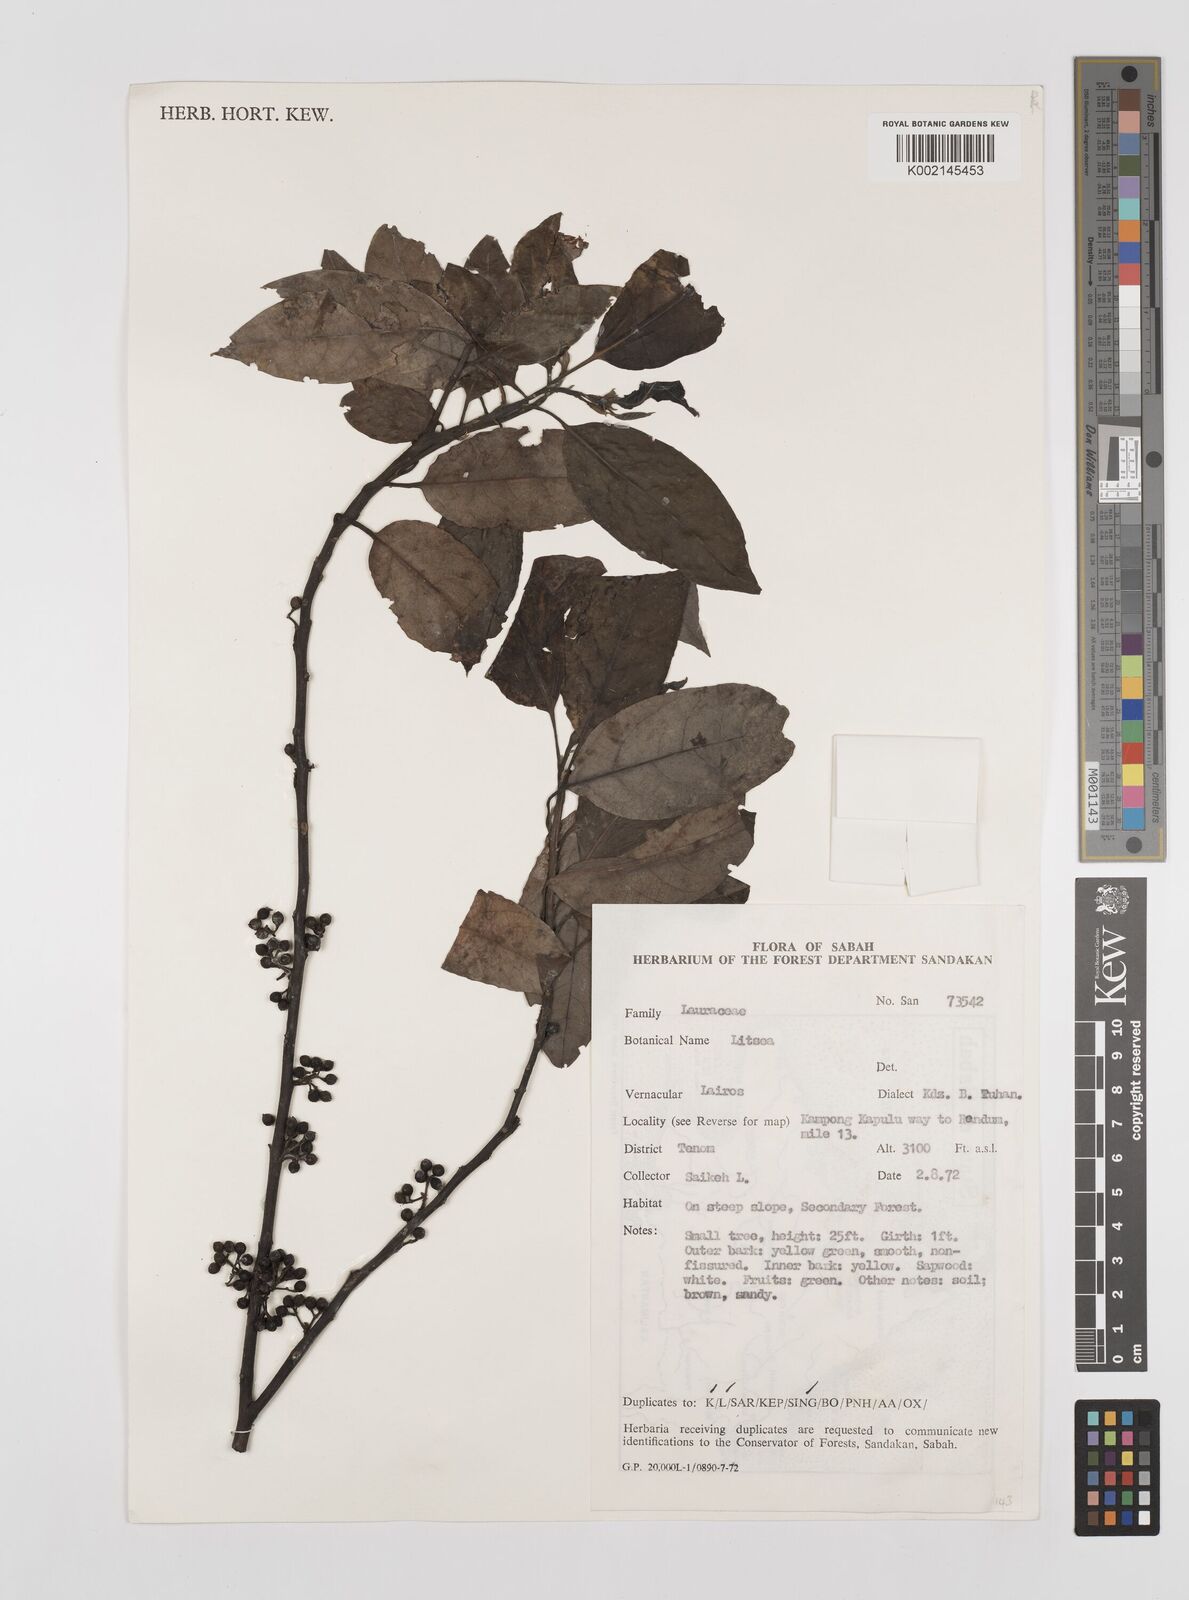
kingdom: Plantae
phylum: Tracheophyta
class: Magnoliopsida
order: Laurales
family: Lauraceae
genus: Litsea
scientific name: Litsea
